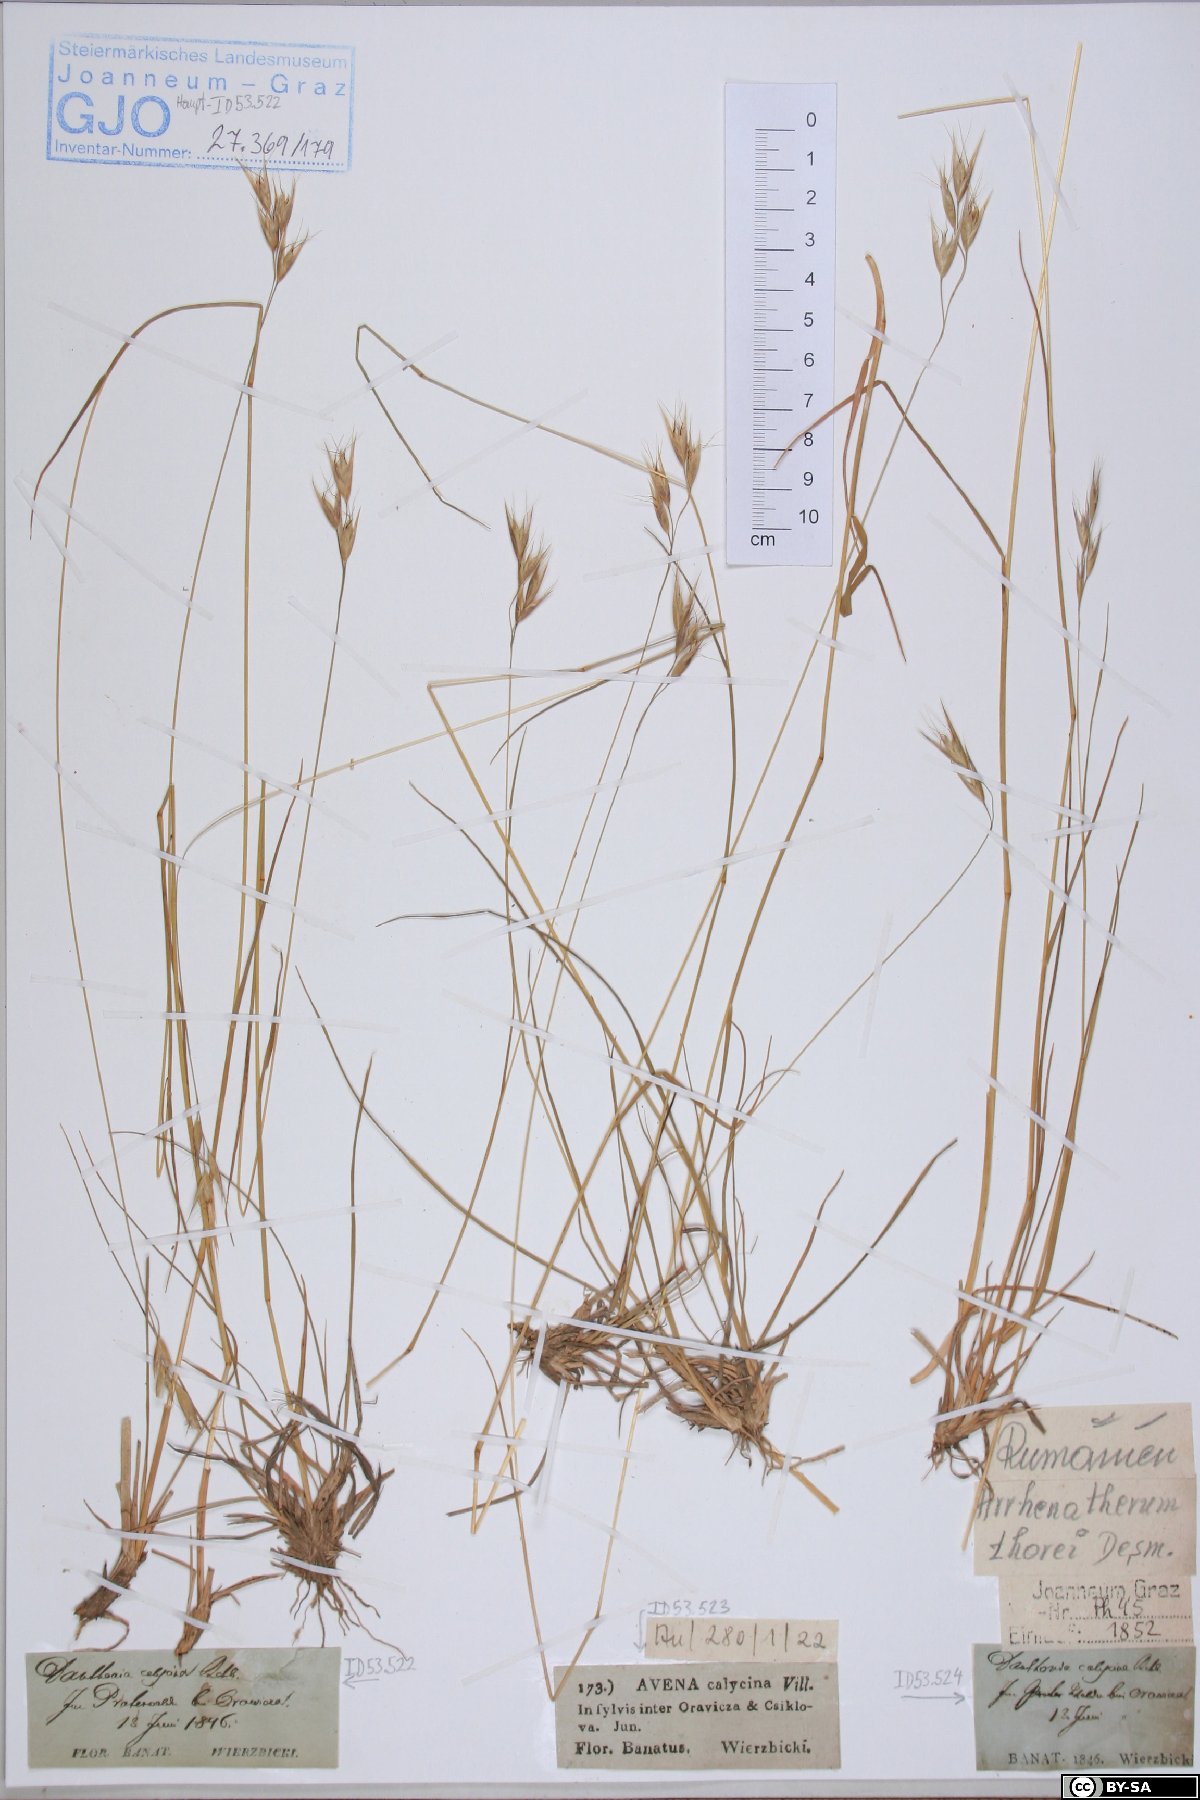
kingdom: Plantae
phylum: Tracheophyta
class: Liliopsida
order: Poales
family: Poaceae
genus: Danthonia
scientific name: Danthonia alpina
